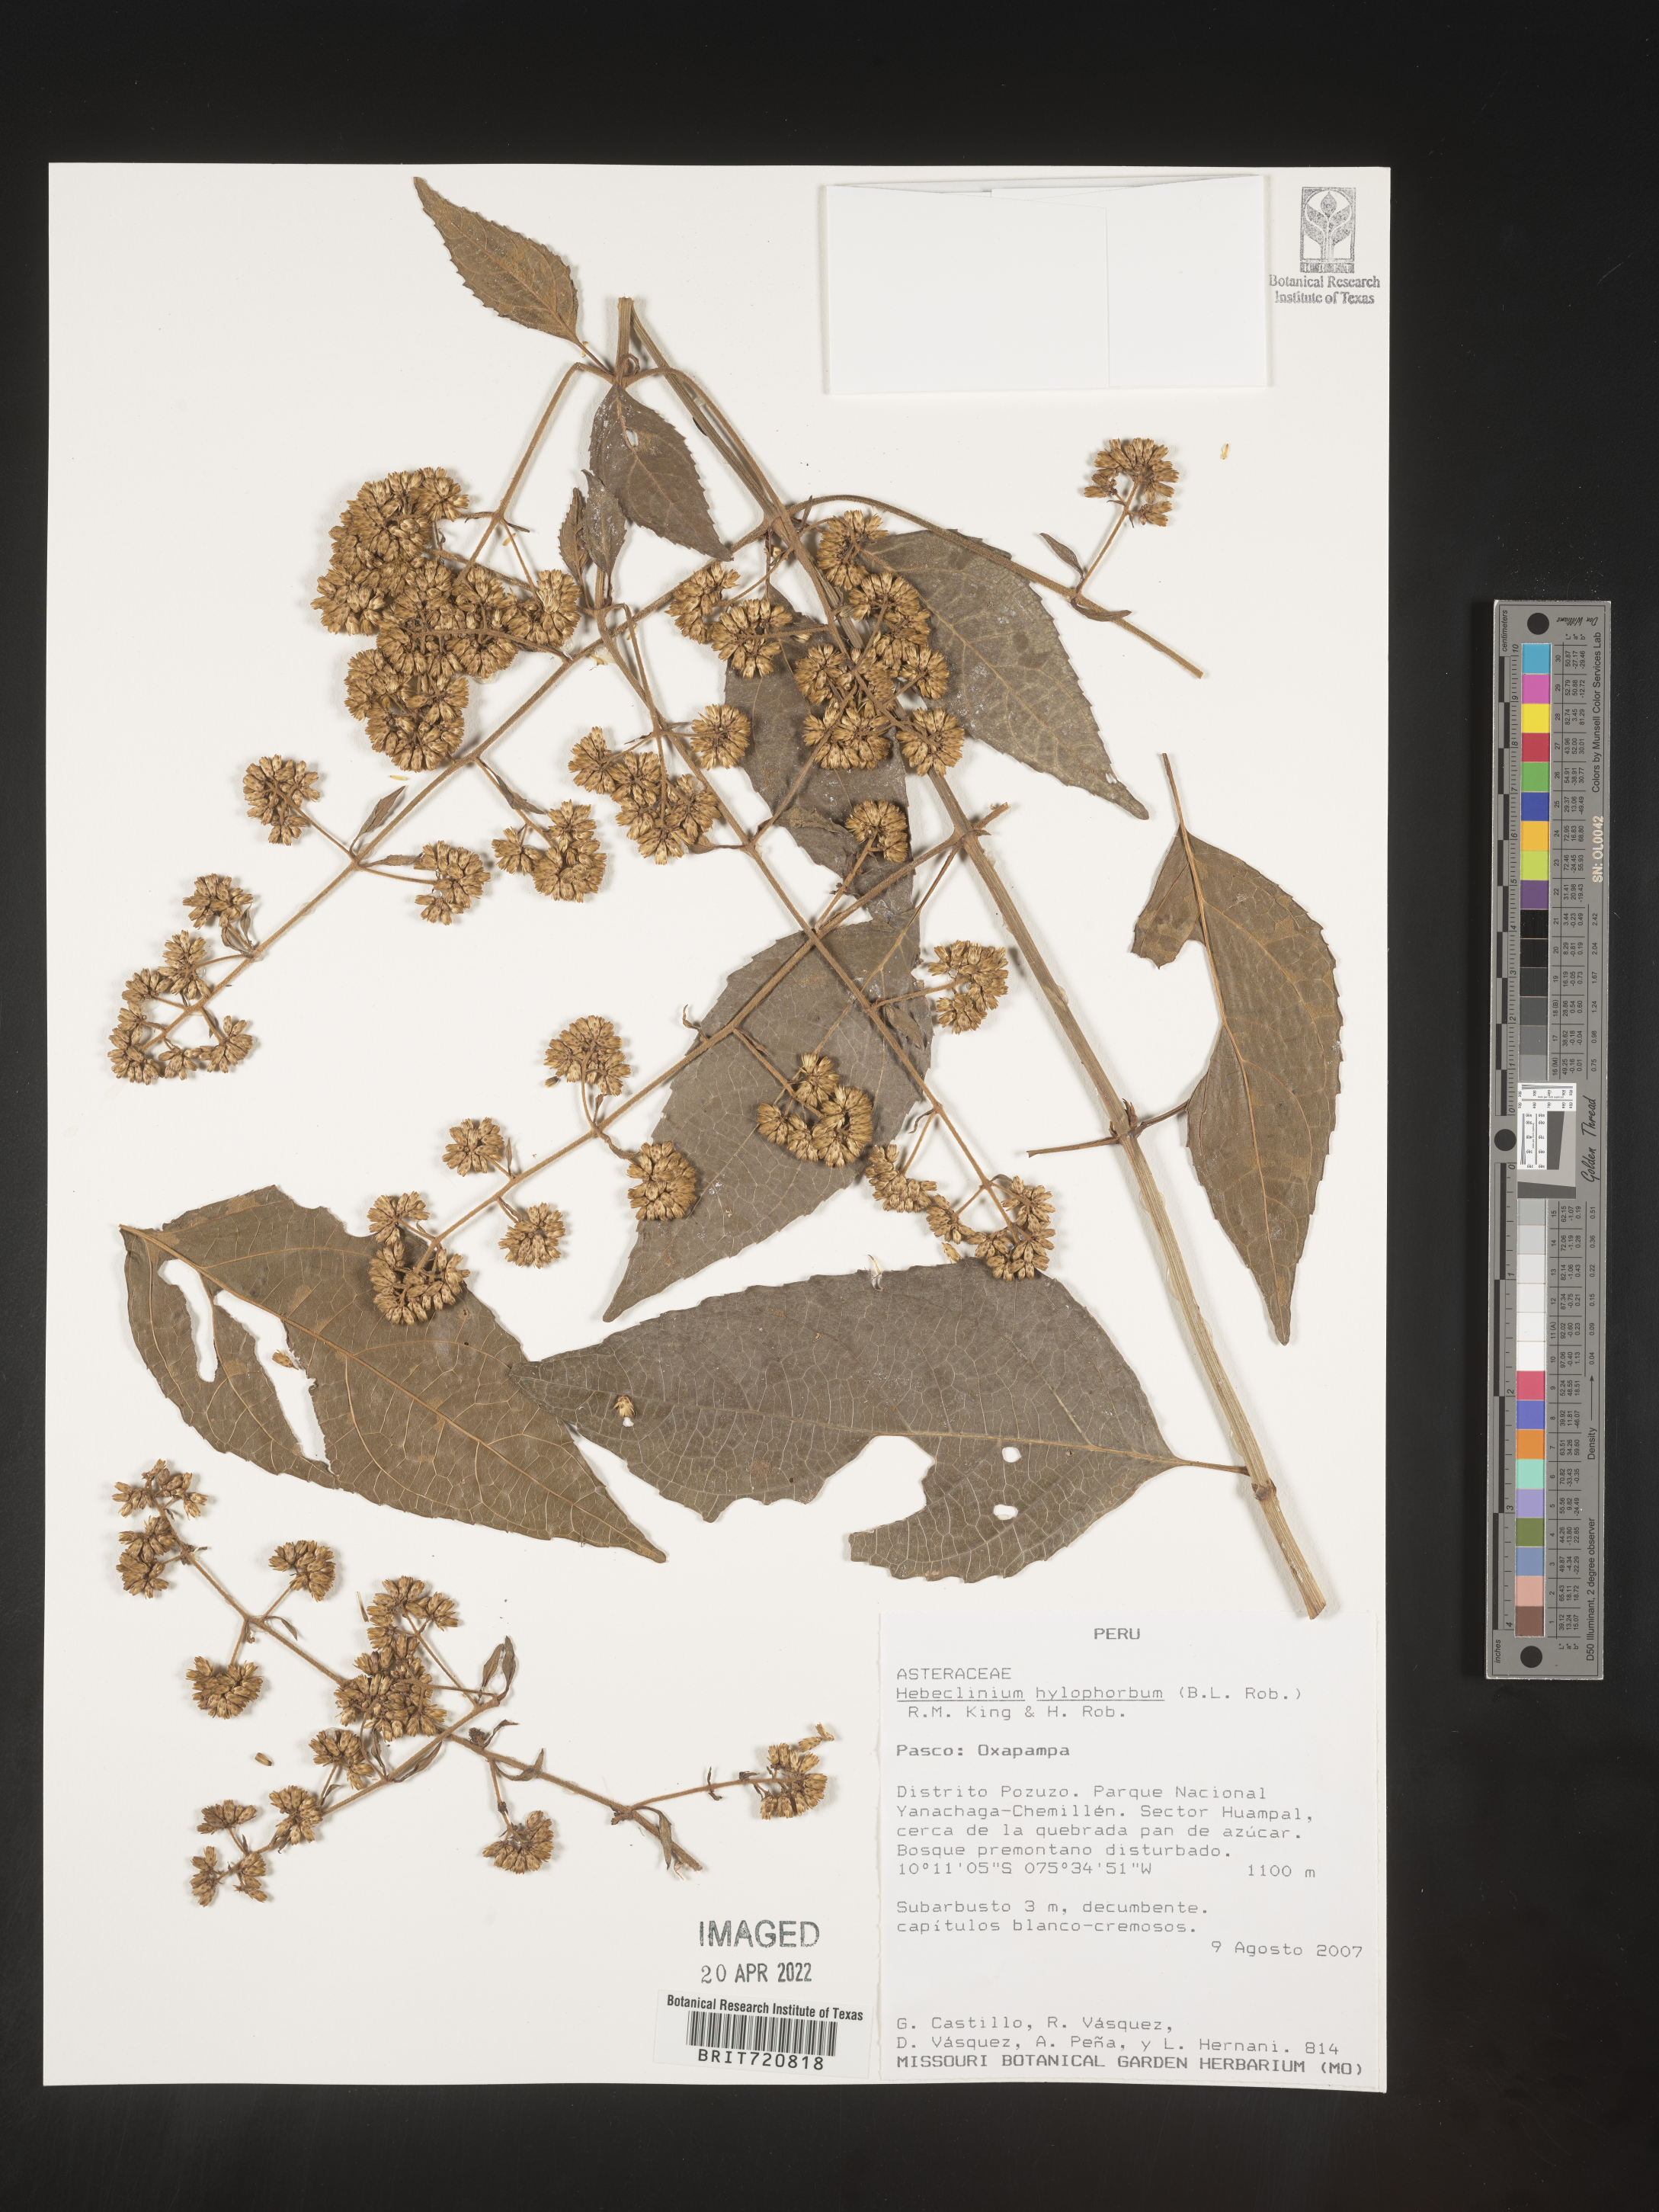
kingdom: Plantae
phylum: Tracheophyta
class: Magnoliopsida
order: Asterales
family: Asteraceae
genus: Hebeclinium
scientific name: Hebeclinium
